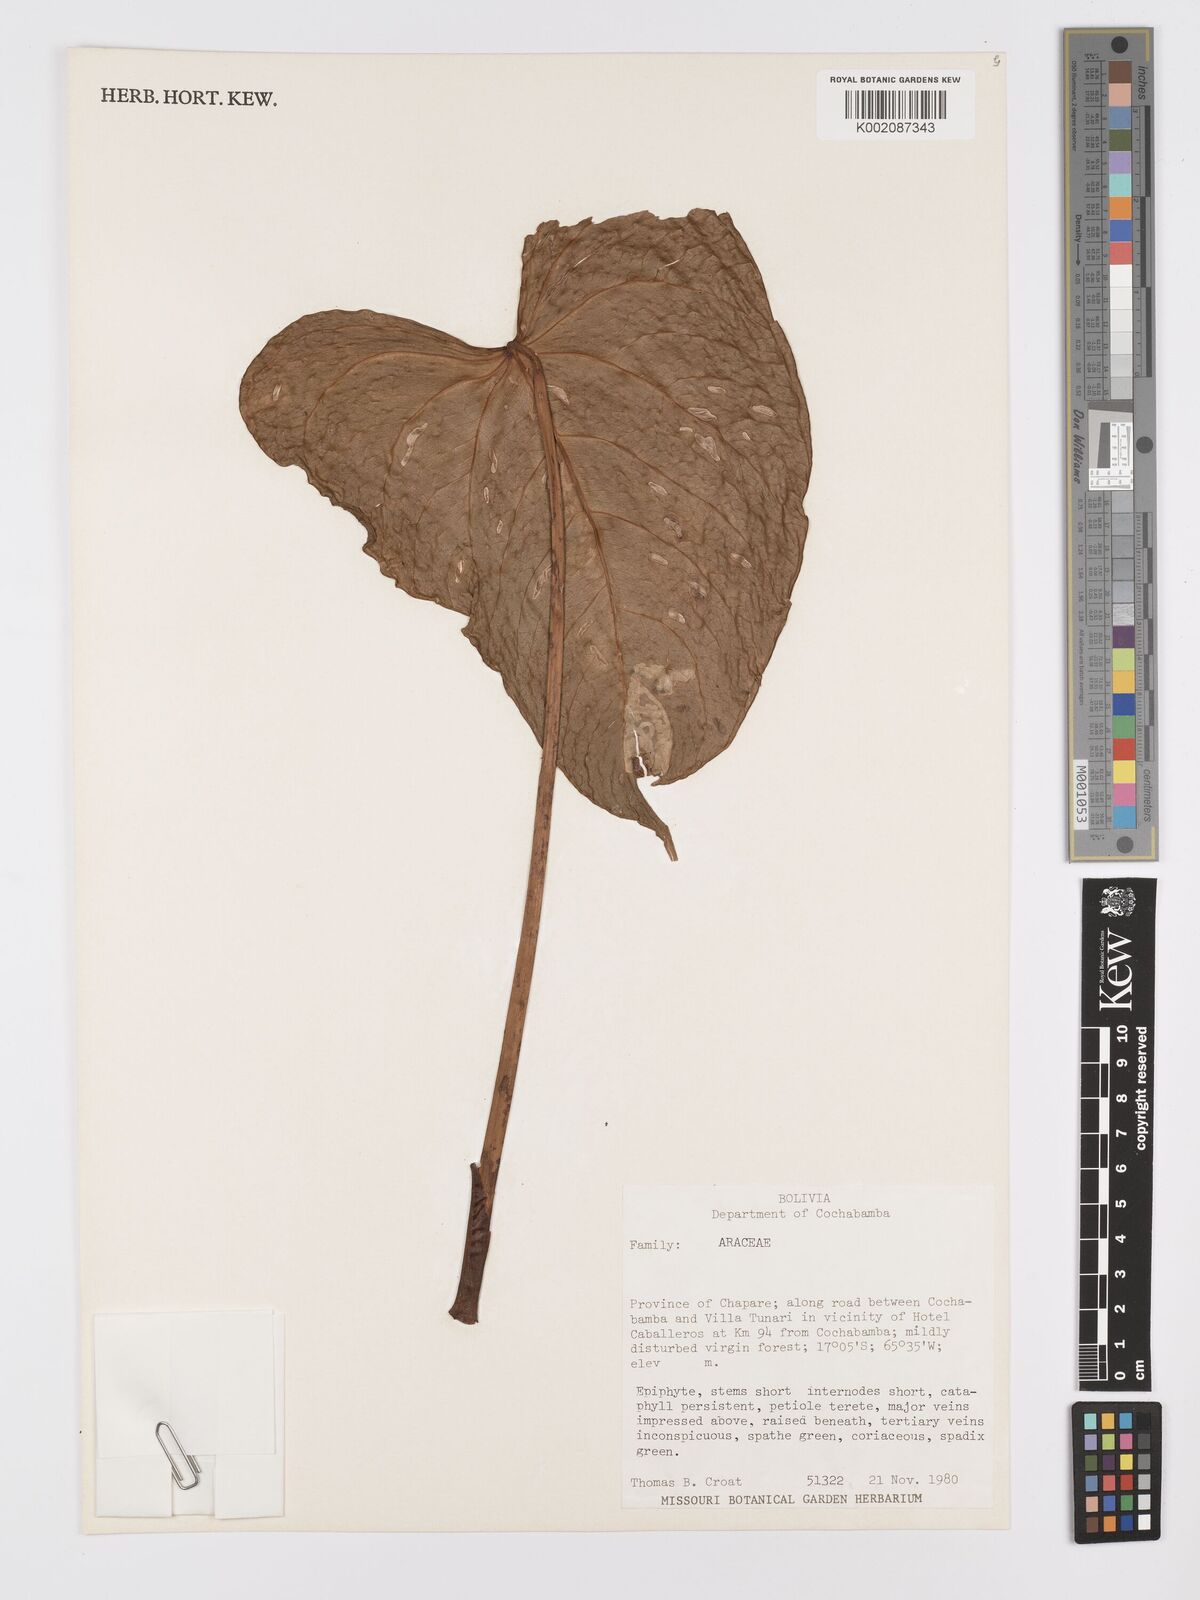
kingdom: Plantae
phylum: Tracheophyta
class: Liliopsida
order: Alismatales
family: Araceae
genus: Anthurium
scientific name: Anthurium
